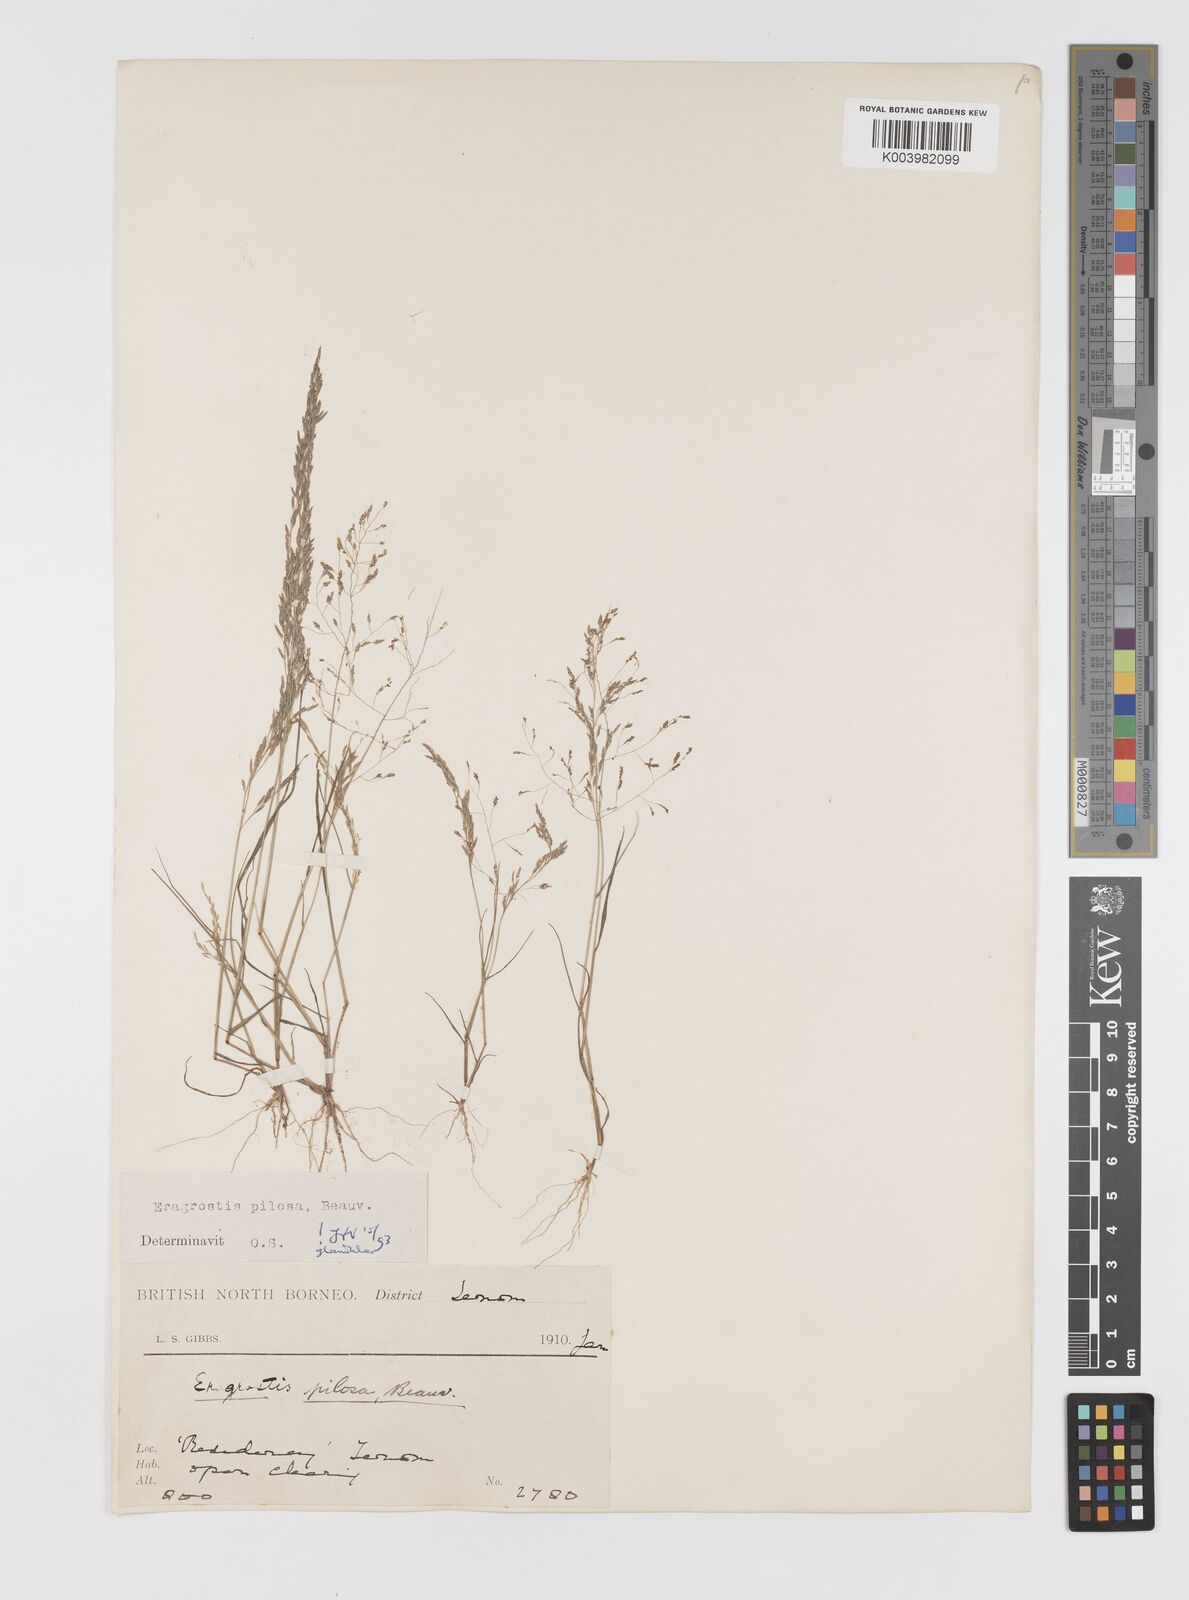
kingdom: Plantae
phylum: Tracheophyta
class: Liliopsida
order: Poales
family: Poaceae
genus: Eragrostis
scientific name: Eragrostis pilosa
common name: Indian lovegrass
